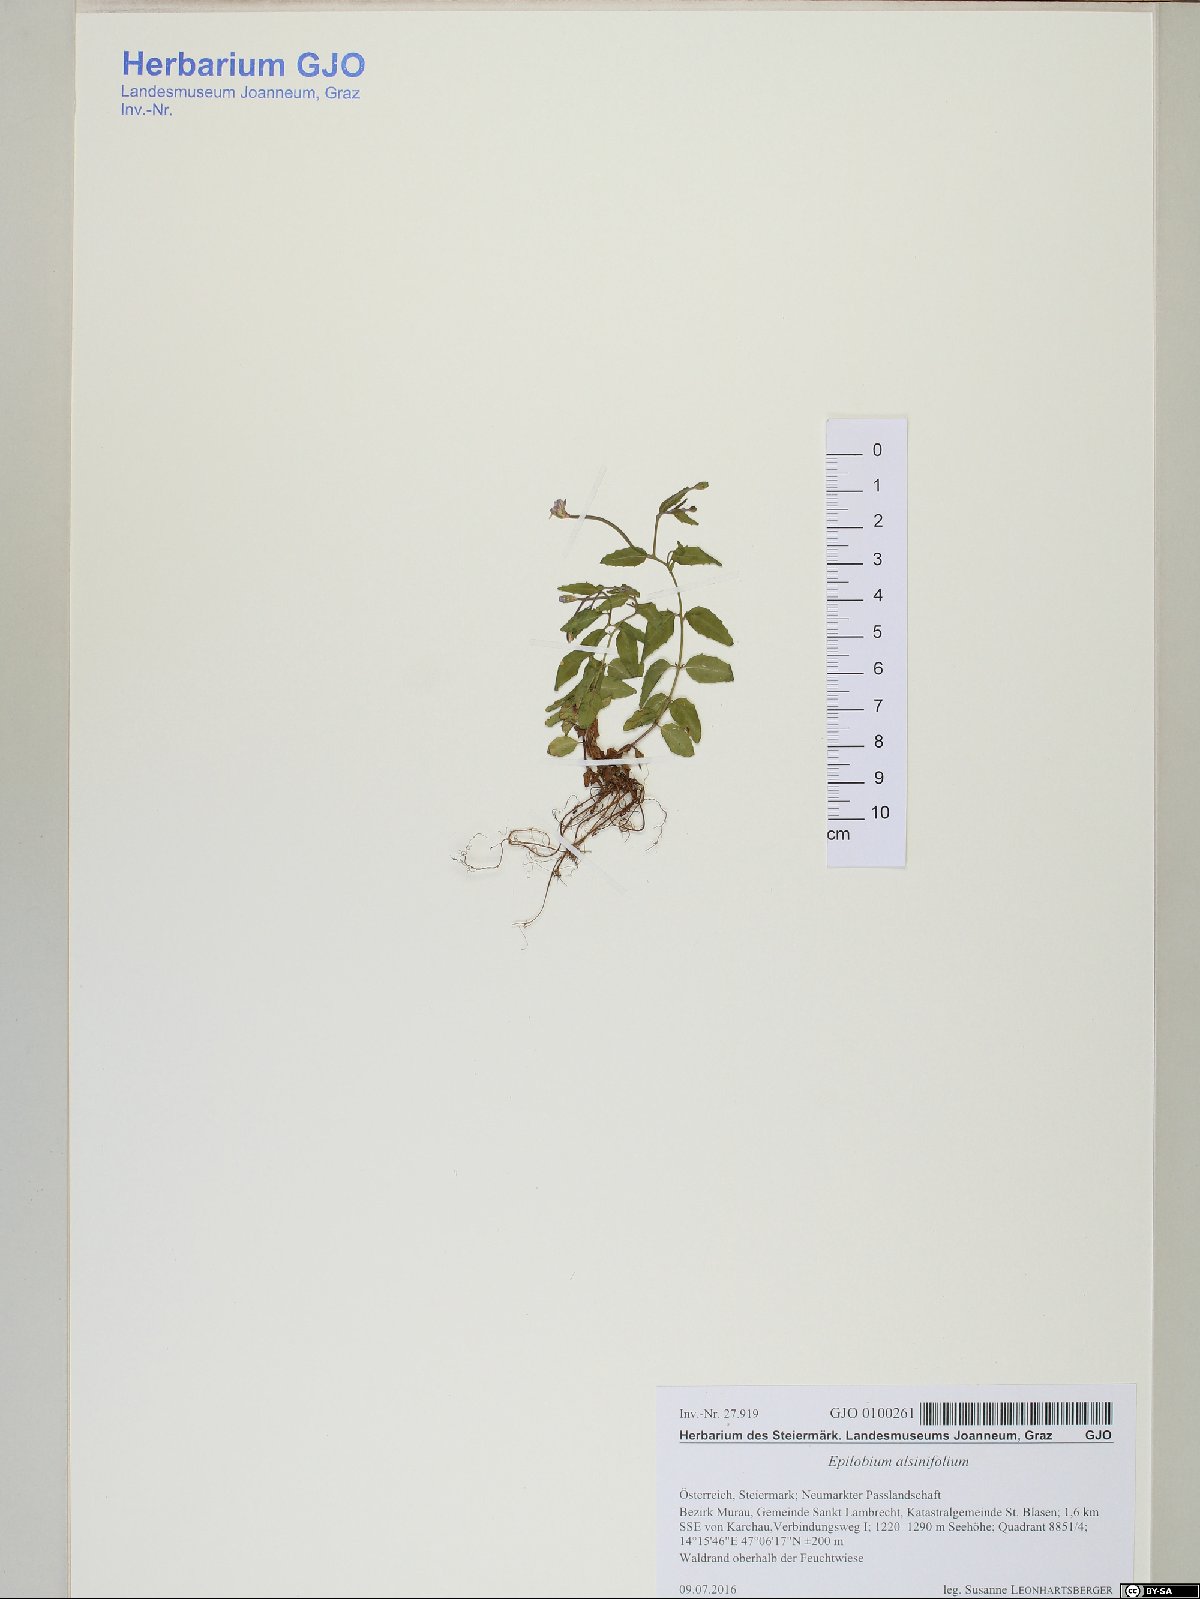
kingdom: Plantae
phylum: Tracheophyta
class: Magnoliopsida
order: Myrtales
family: Onagraceae
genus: Epilobium
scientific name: Epilobium alsinifolium
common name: Chickweed willowherb
